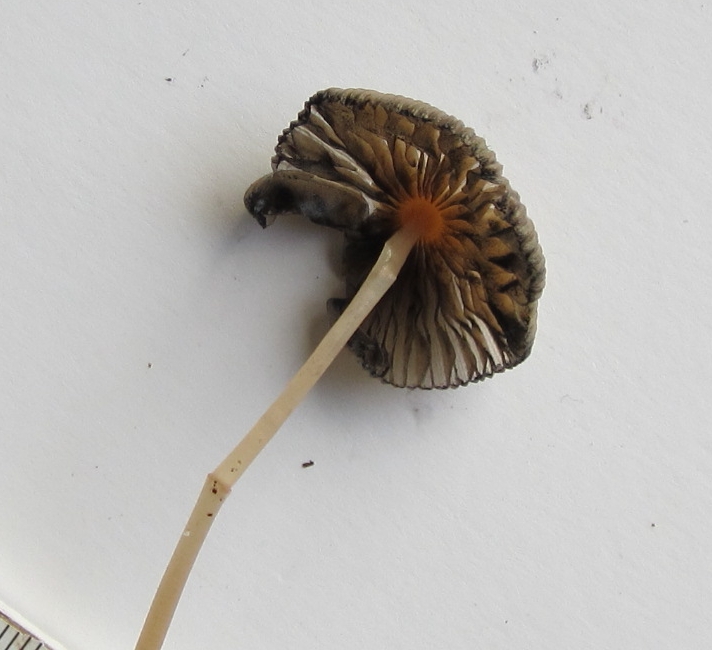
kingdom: Fungi
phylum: Basidiomycota
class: Agaricomycetes
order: Agaricales
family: Psathyrellaceae
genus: Parasola
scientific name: Parasola megasperma
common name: storsporet hjulhat
